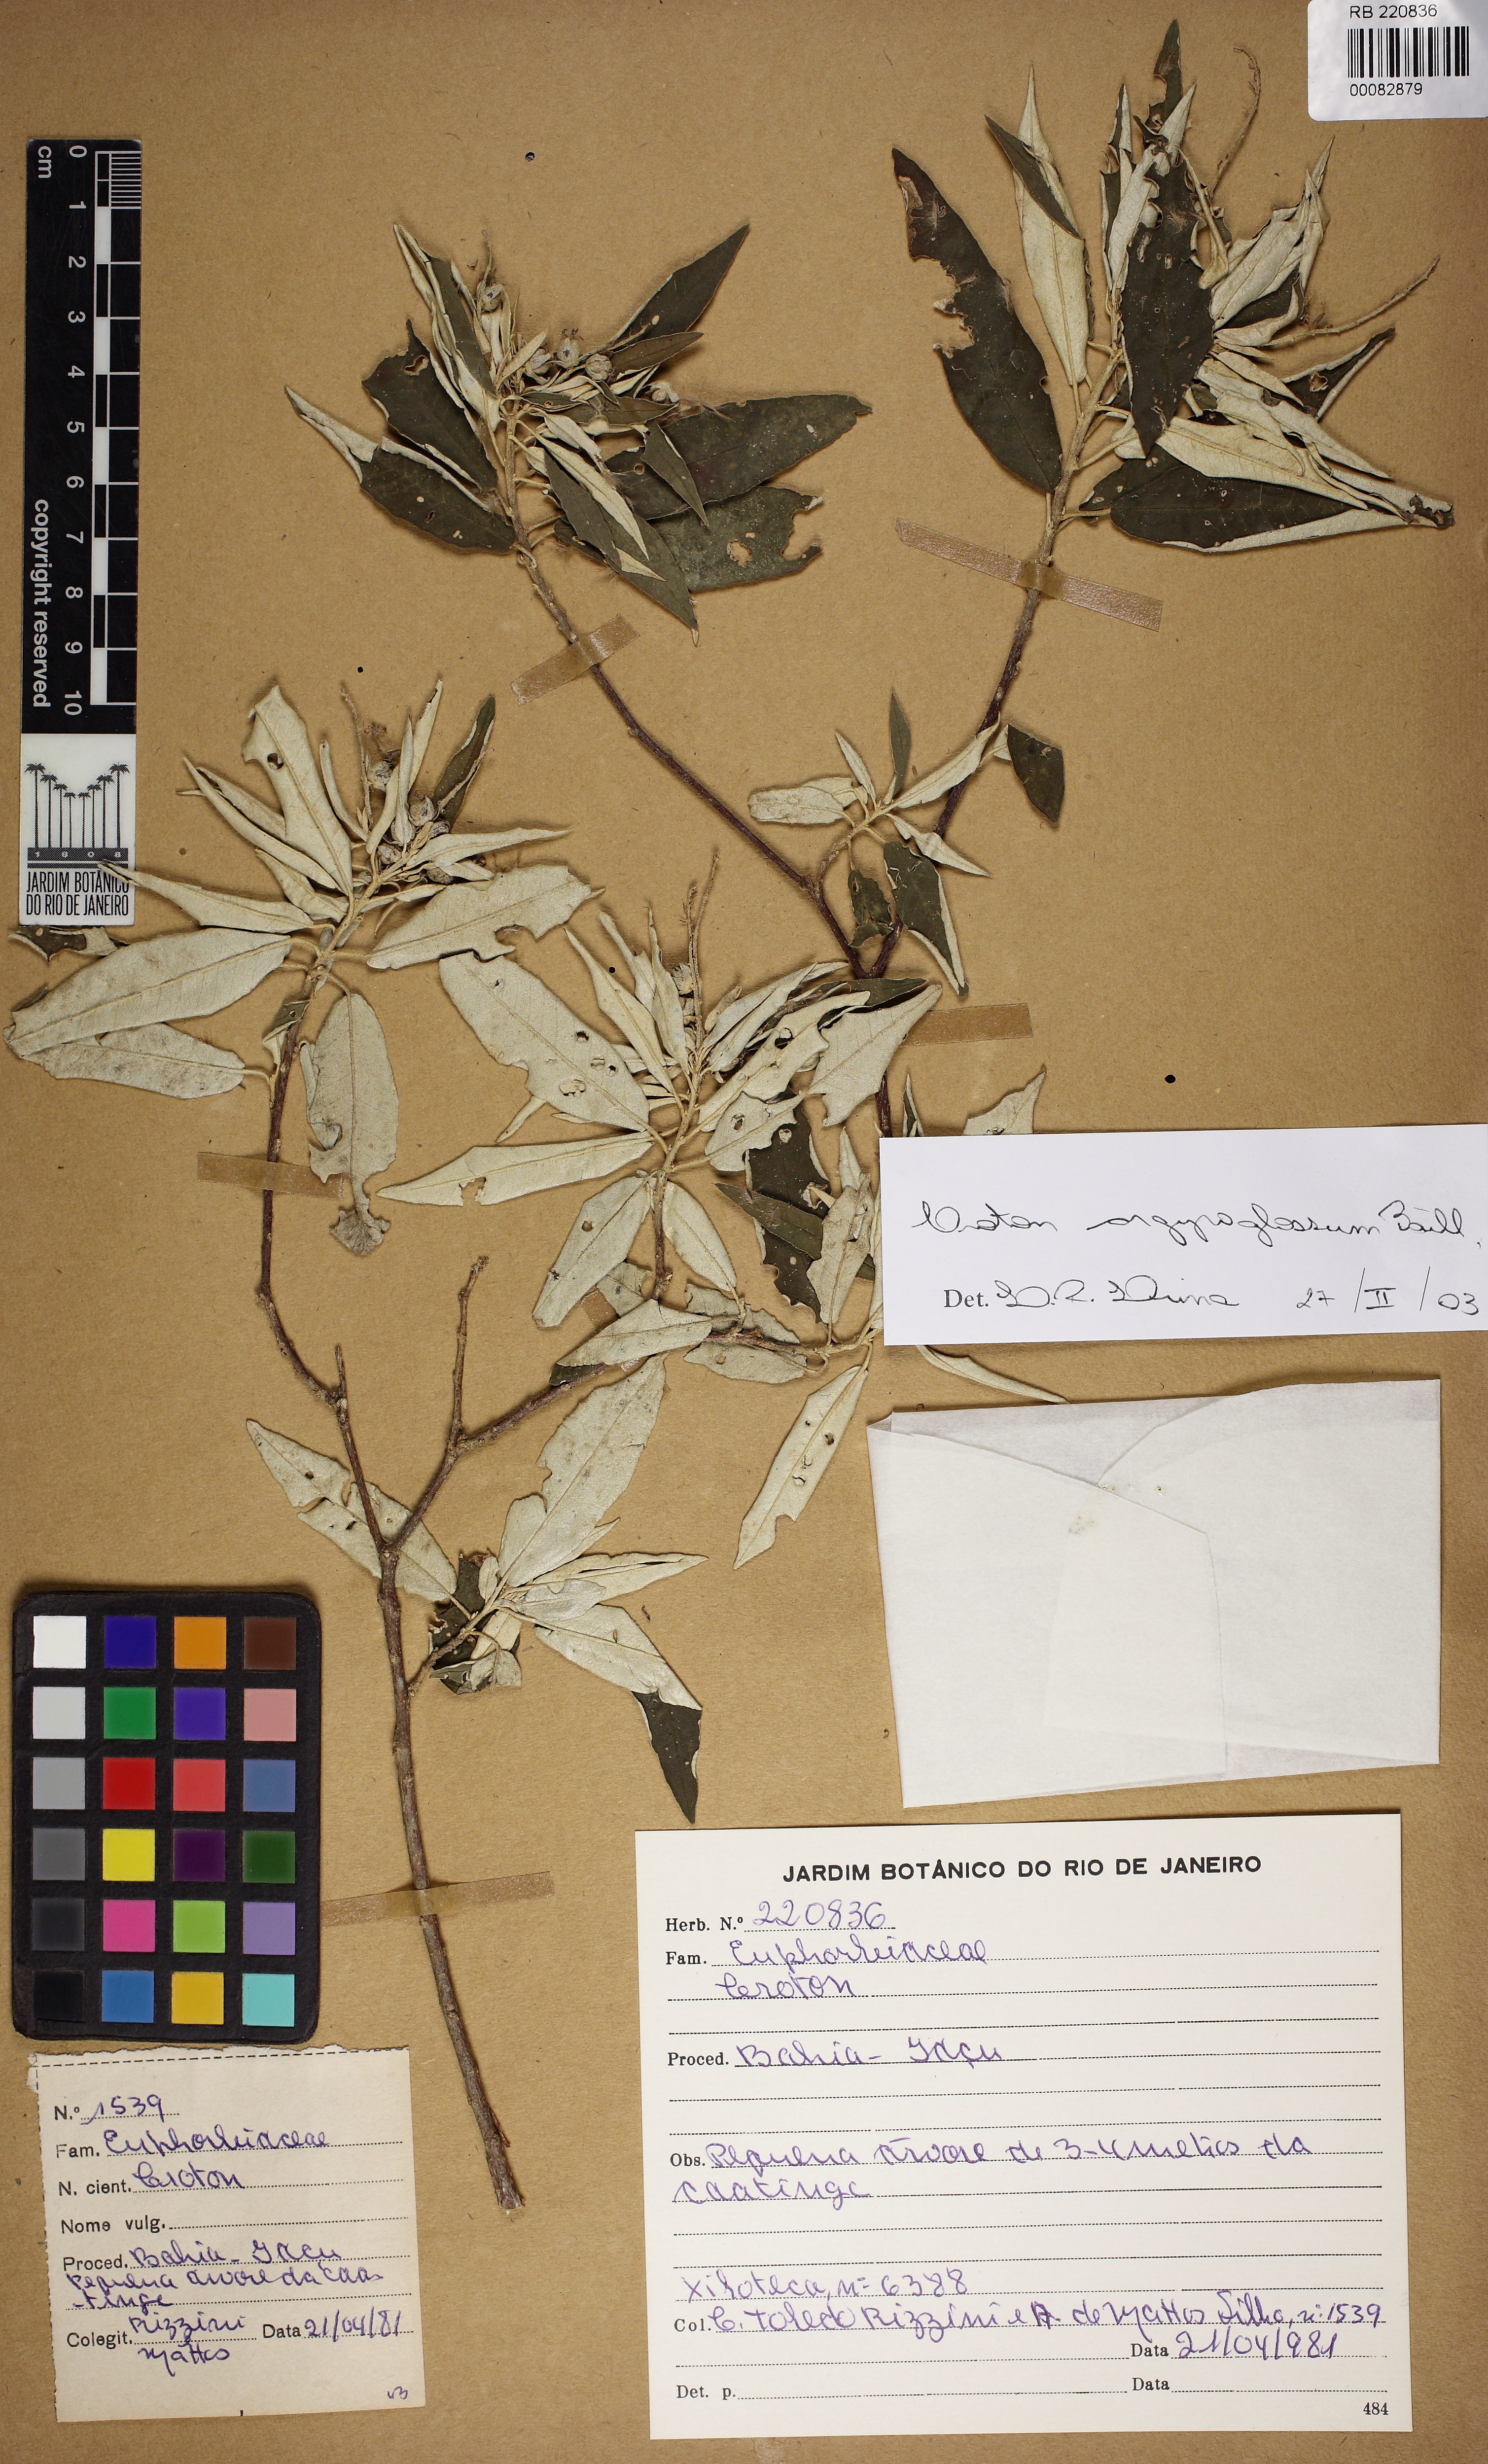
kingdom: Plantae
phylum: Tracheophyta
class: Magnoliopsida
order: Malpighiales
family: Euphorbiaceae
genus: Croton
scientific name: Croton argyrophyllus
